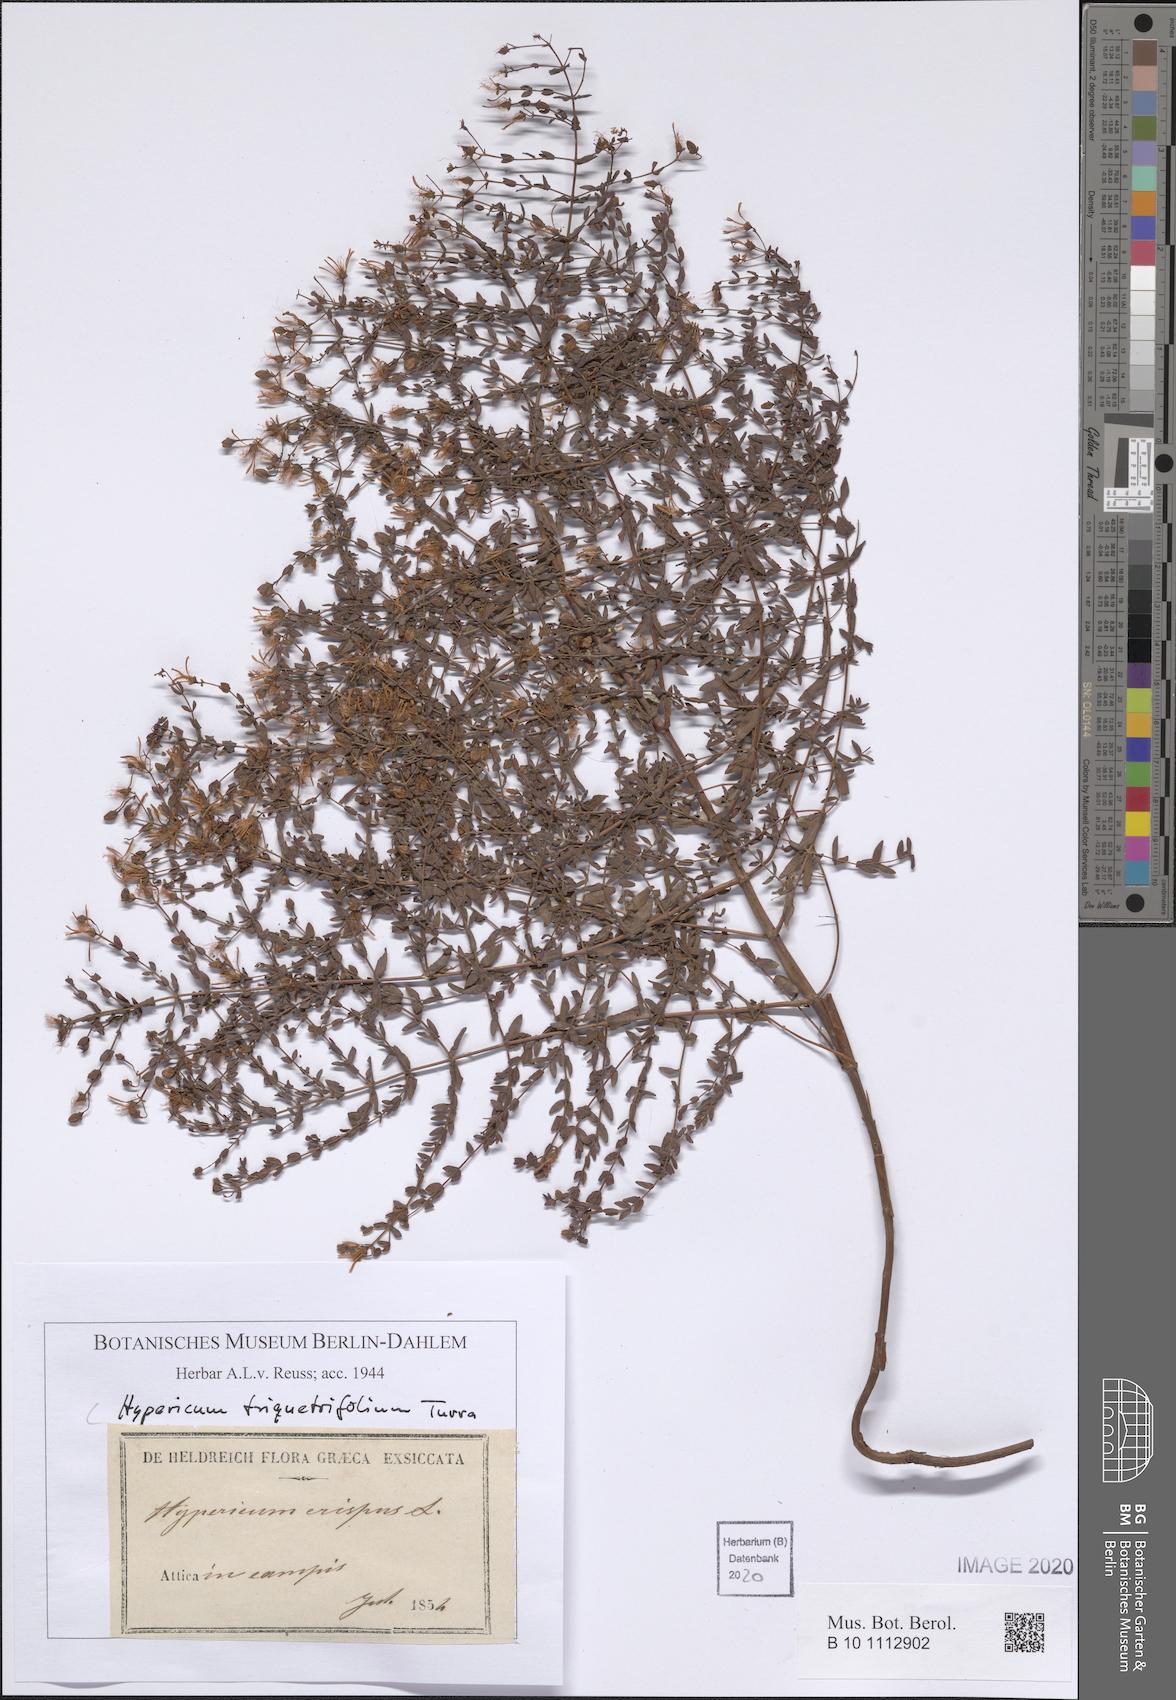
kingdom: Plantae
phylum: Tracheophyta
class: Magnoliopsida
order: Malpighiales
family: Hypericaceae
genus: Hypericum
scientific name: Hypericum triquetrifolium
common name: Tangled hypericum
